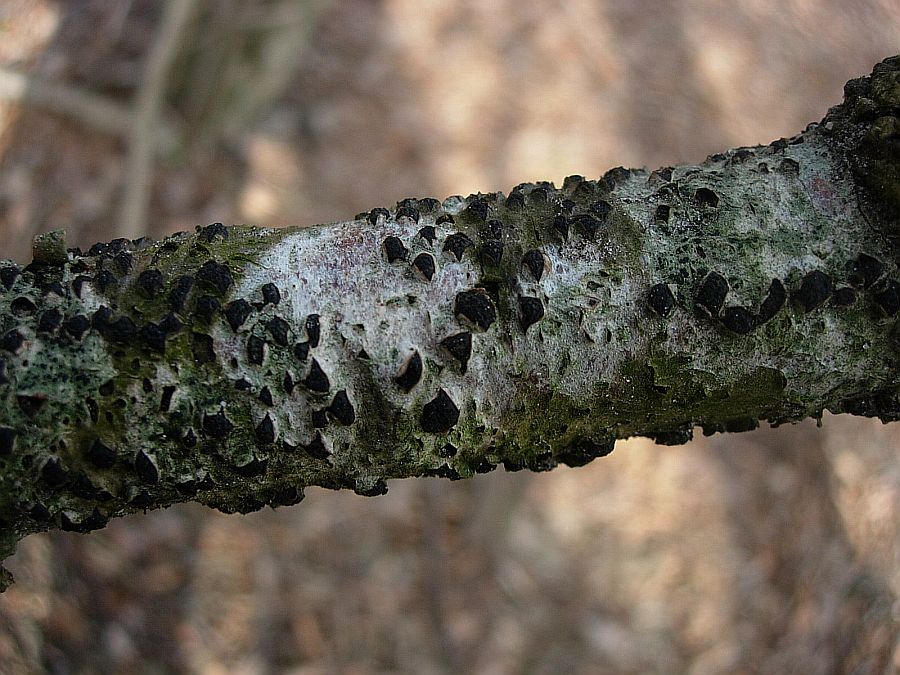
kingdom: Fungi
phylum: Ascomycota
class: Sordariomycetes
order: Xylariales
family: Diatrypaceae
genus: Diatrypella
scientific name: Diatrypella quercina
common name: ege-kulskorpe
